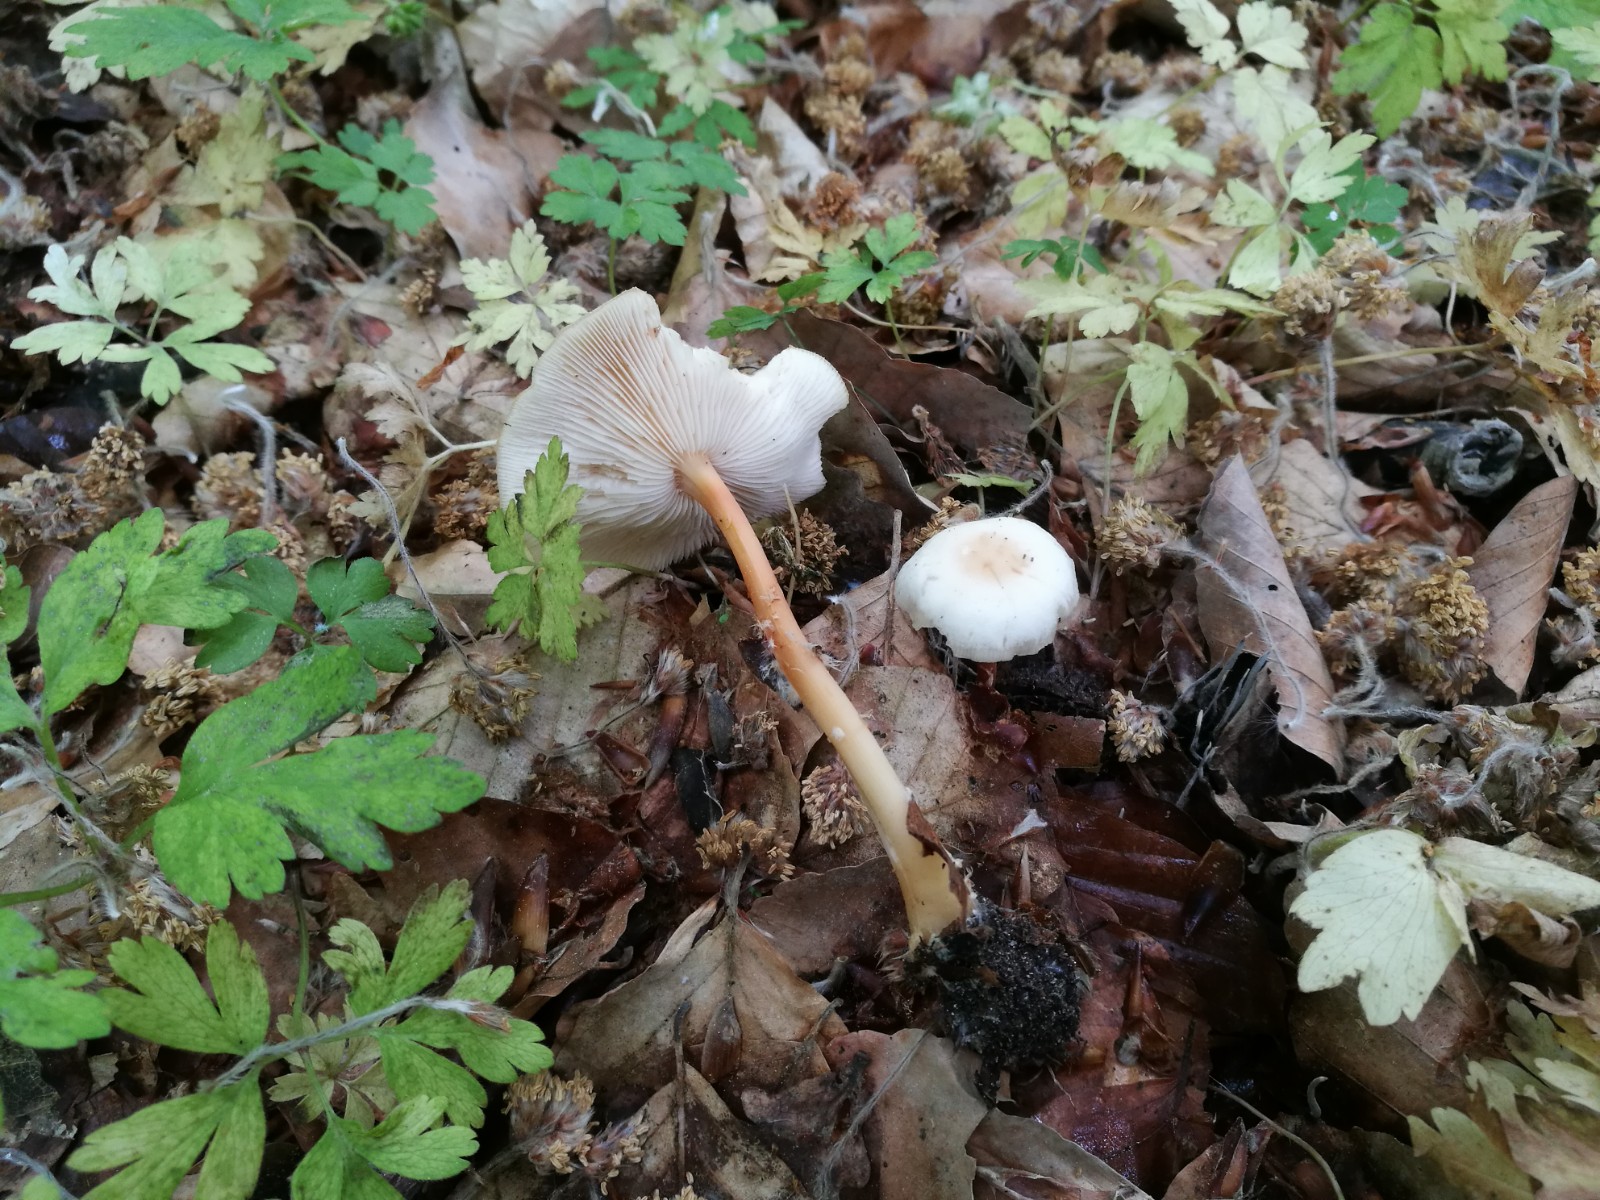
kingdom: Fungi
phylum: Basidiomycota
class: Agaricomycetes
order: Agaricales
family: Omphalotaceae
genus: Gymnopus
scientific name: Gymnopus aquosus
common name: bleg fladhat
